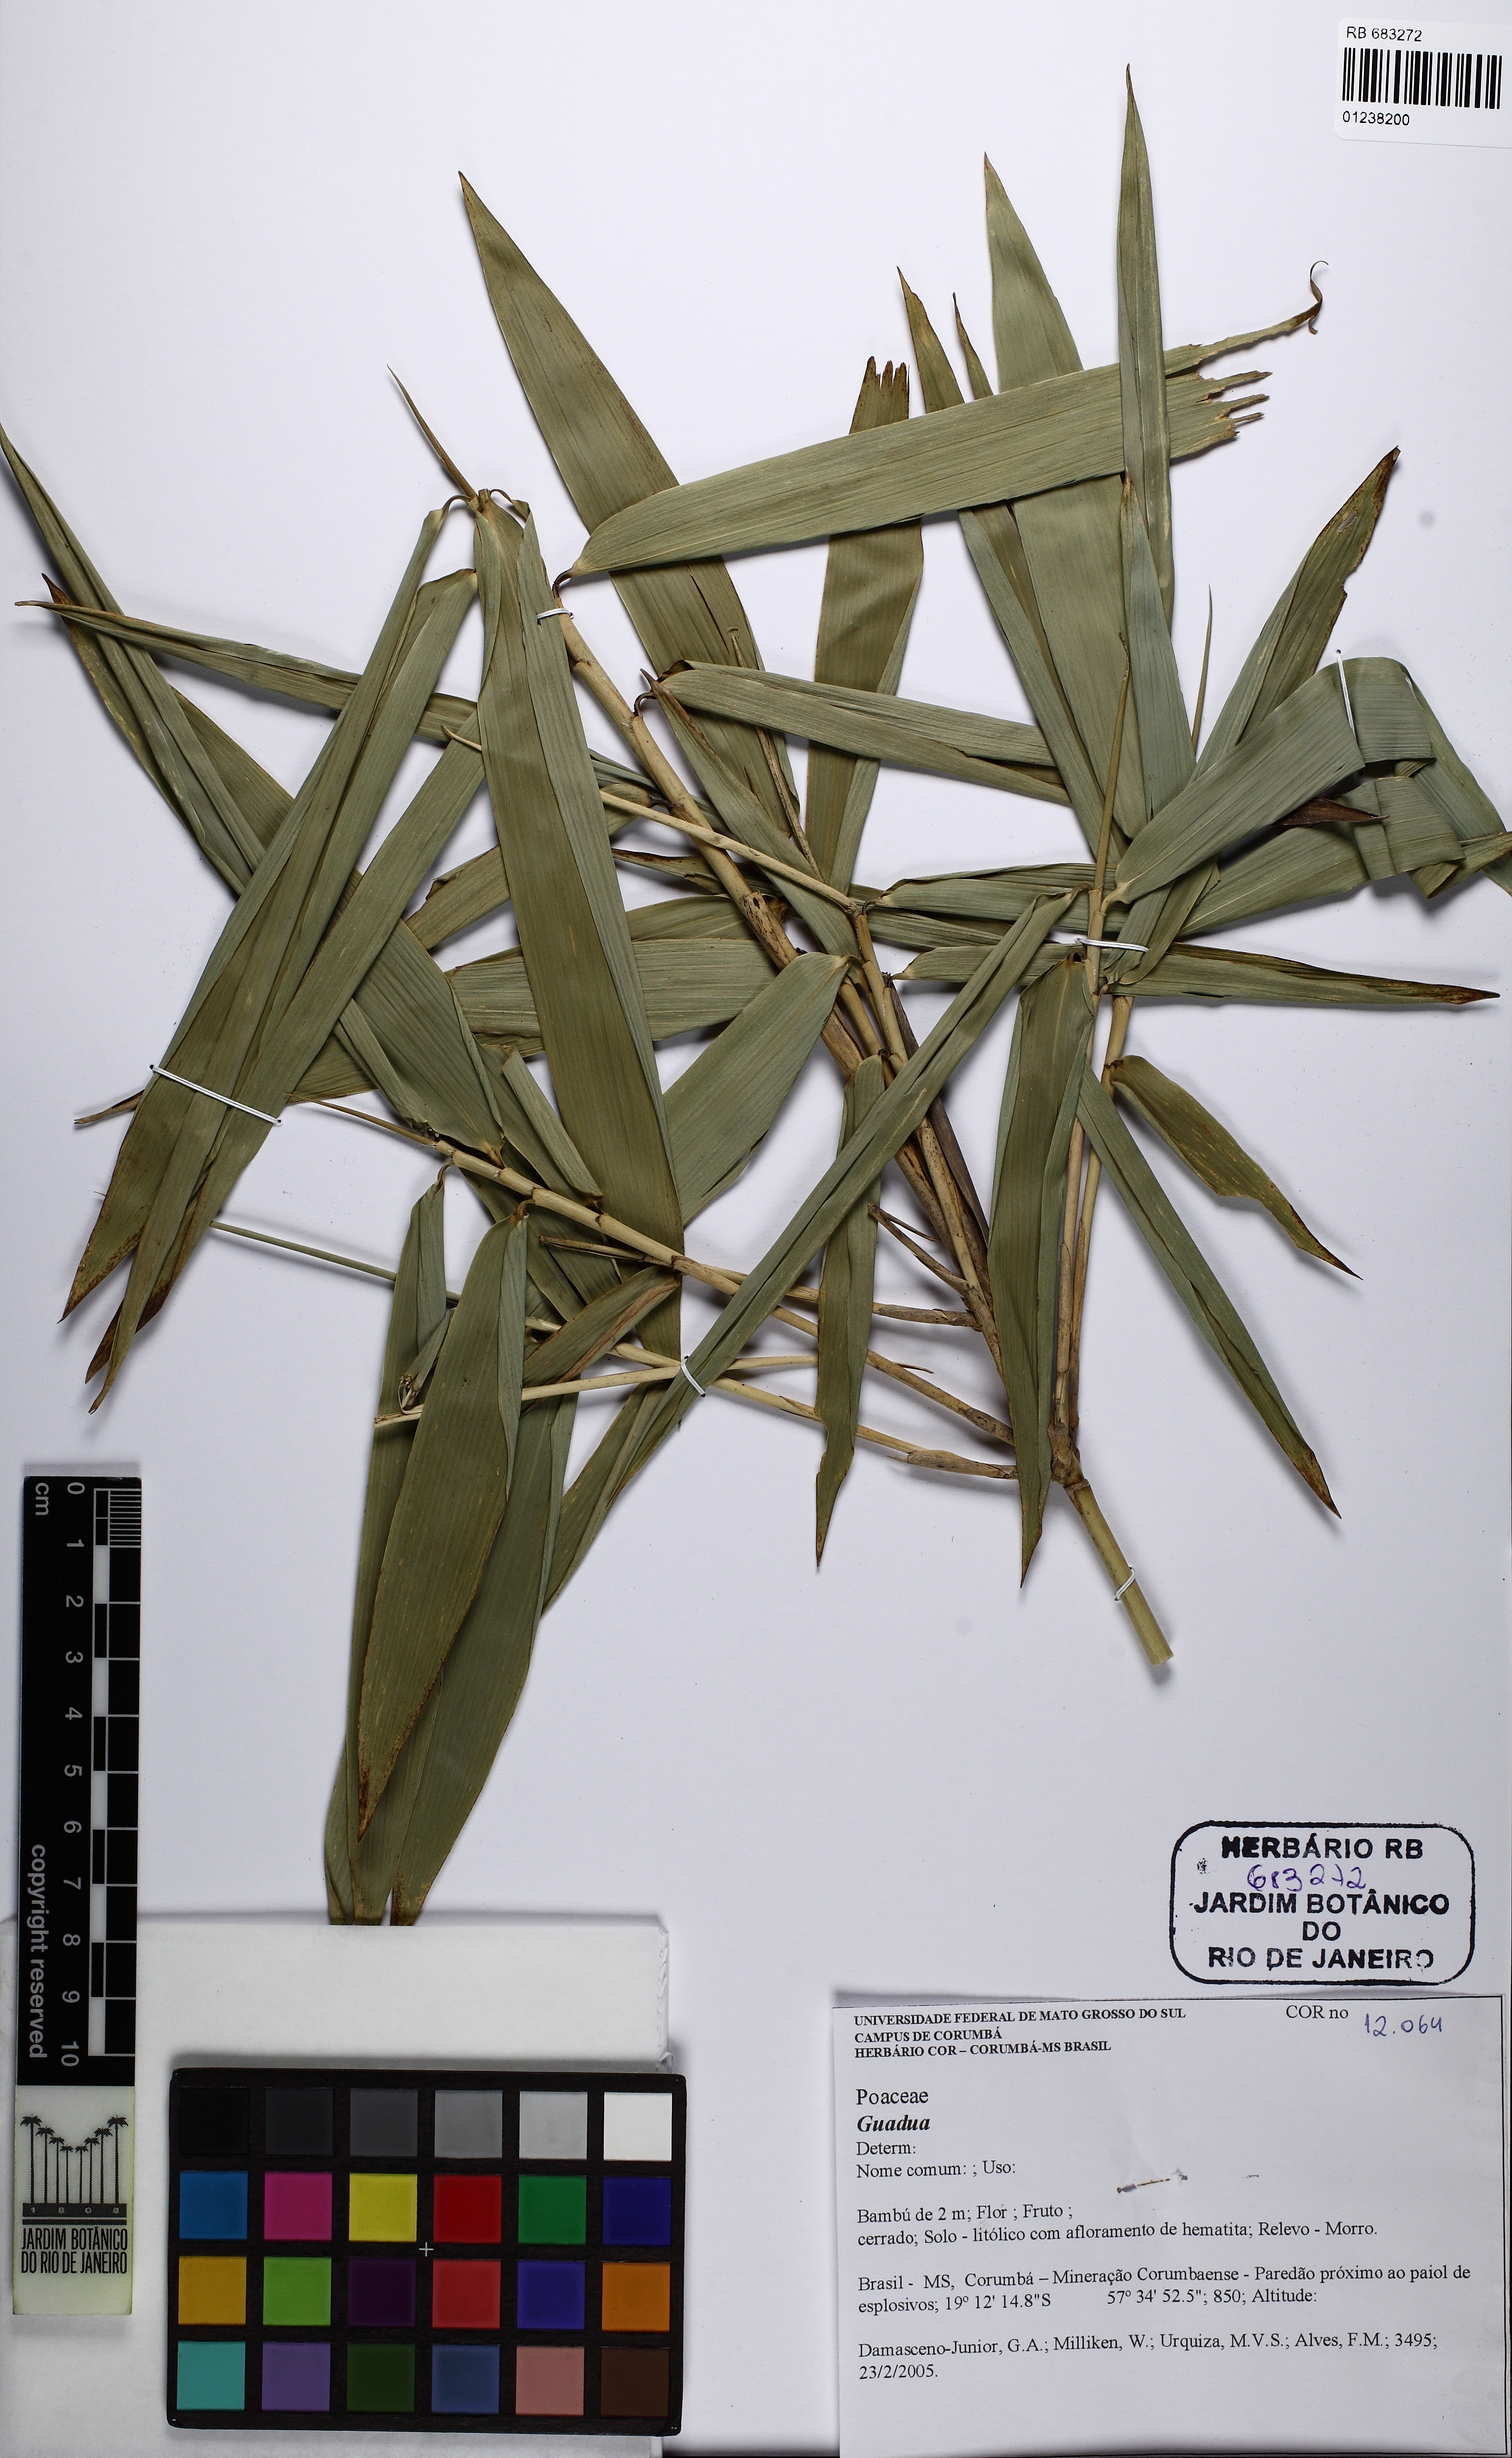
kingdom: Plantae
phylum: Tracheophyta
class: Liliopsida
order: Poales
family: Poaceae
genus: Guadua
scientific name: Guadua
